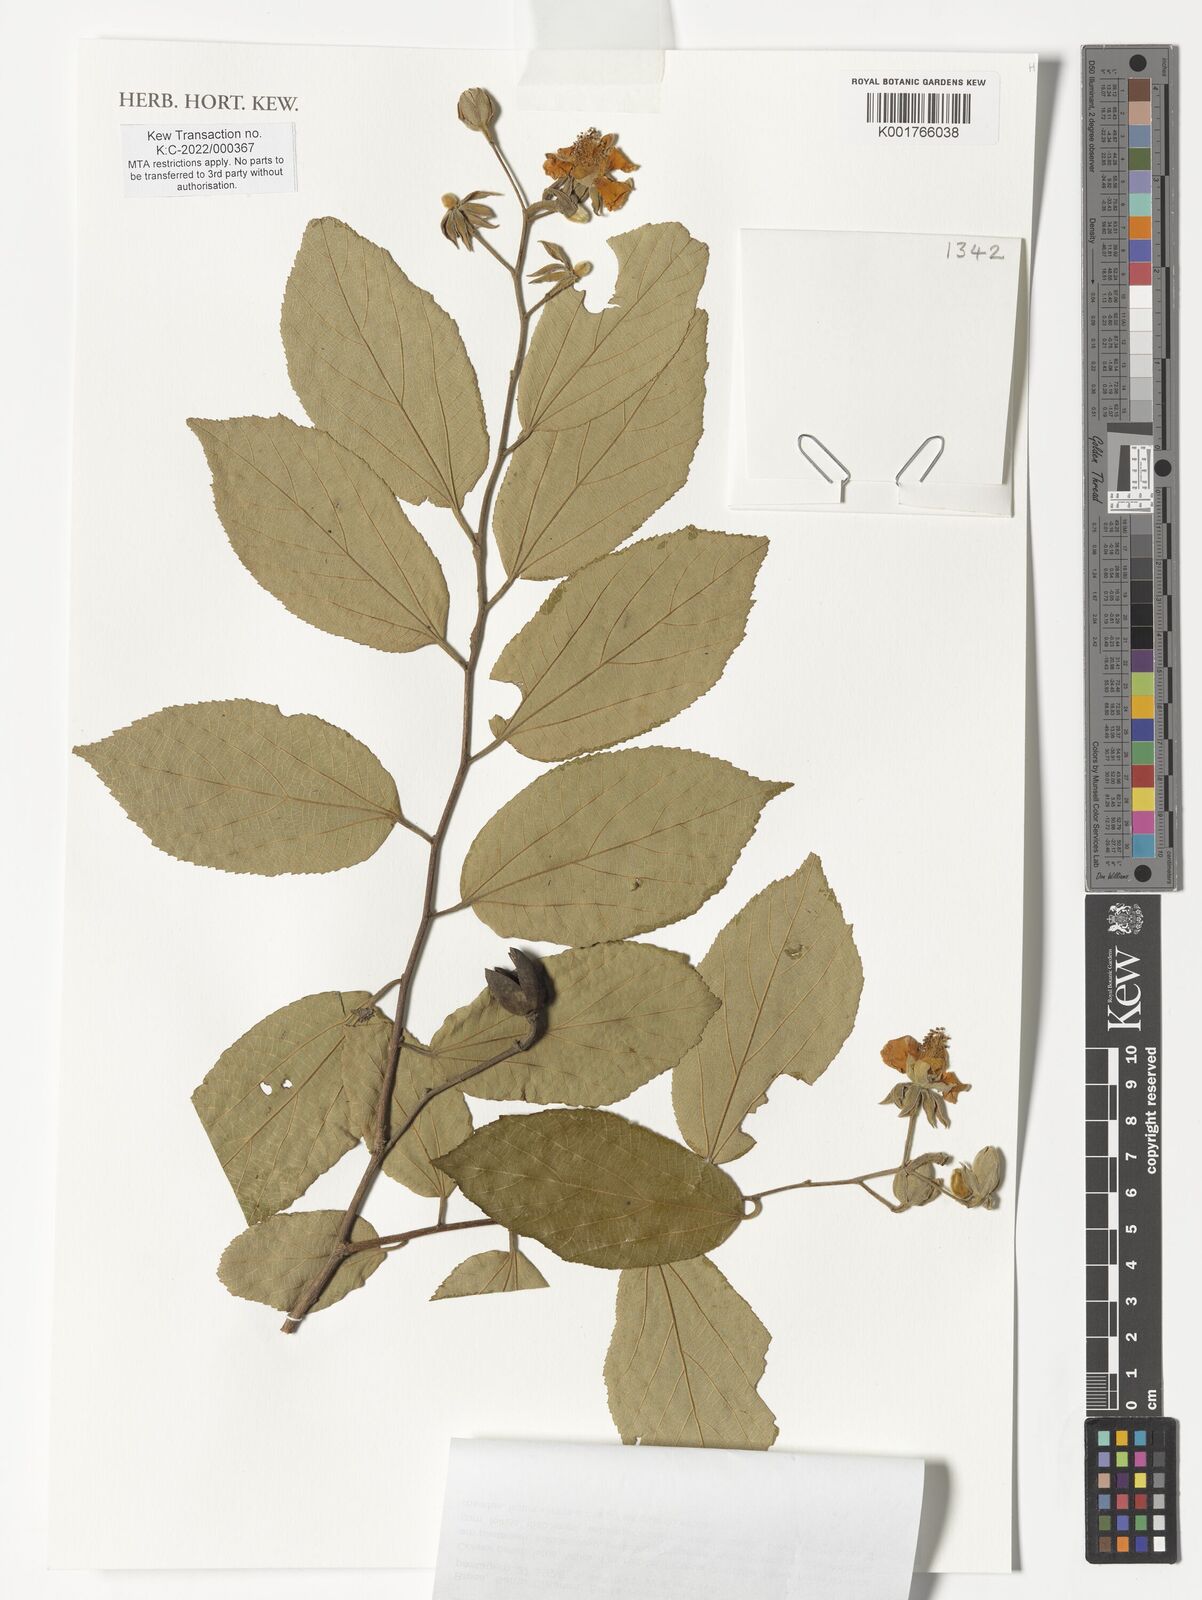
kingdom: Plantae
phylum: Tracheophyta
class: Magnoliopsida
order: Malvales
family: Malvaceae
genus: Luehea
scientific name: Luehea divaricata
